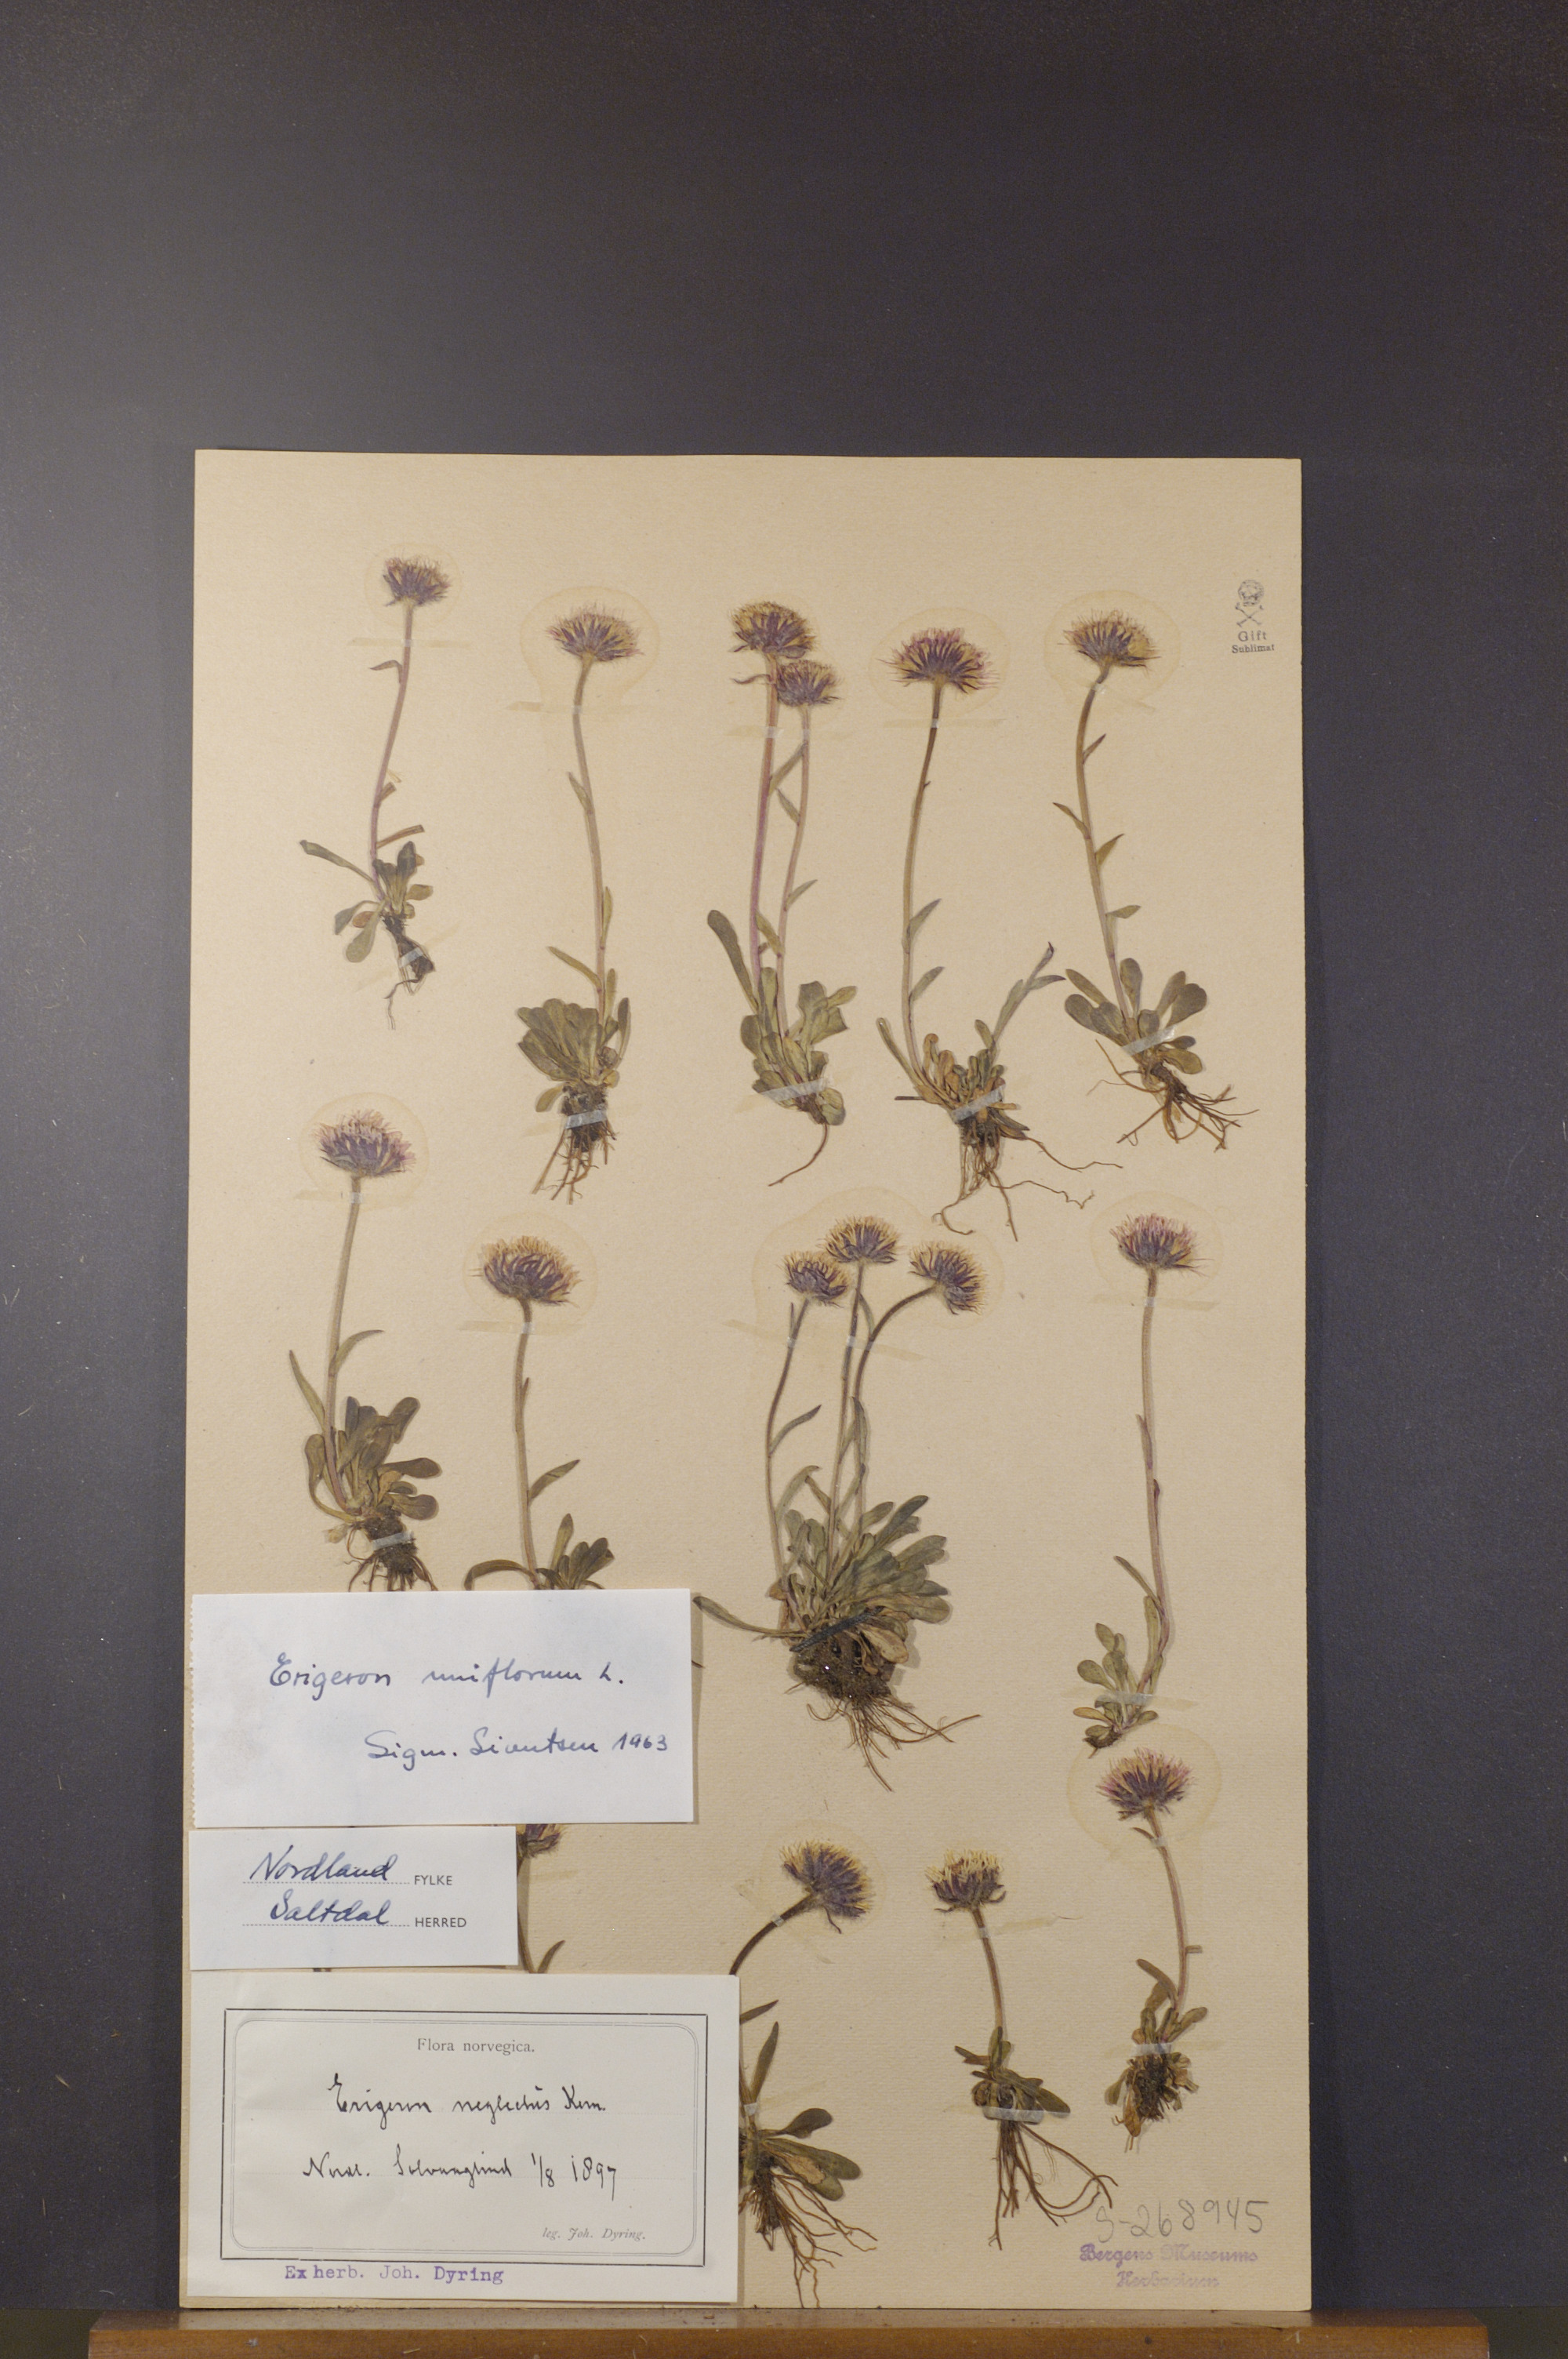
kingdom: Plantae
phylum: Tracheophyta
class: Magnoliopsida
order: Asterales
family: Asteraceae
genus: Erigeron
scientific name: Erigeron uniflorus
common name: Northern daisy
